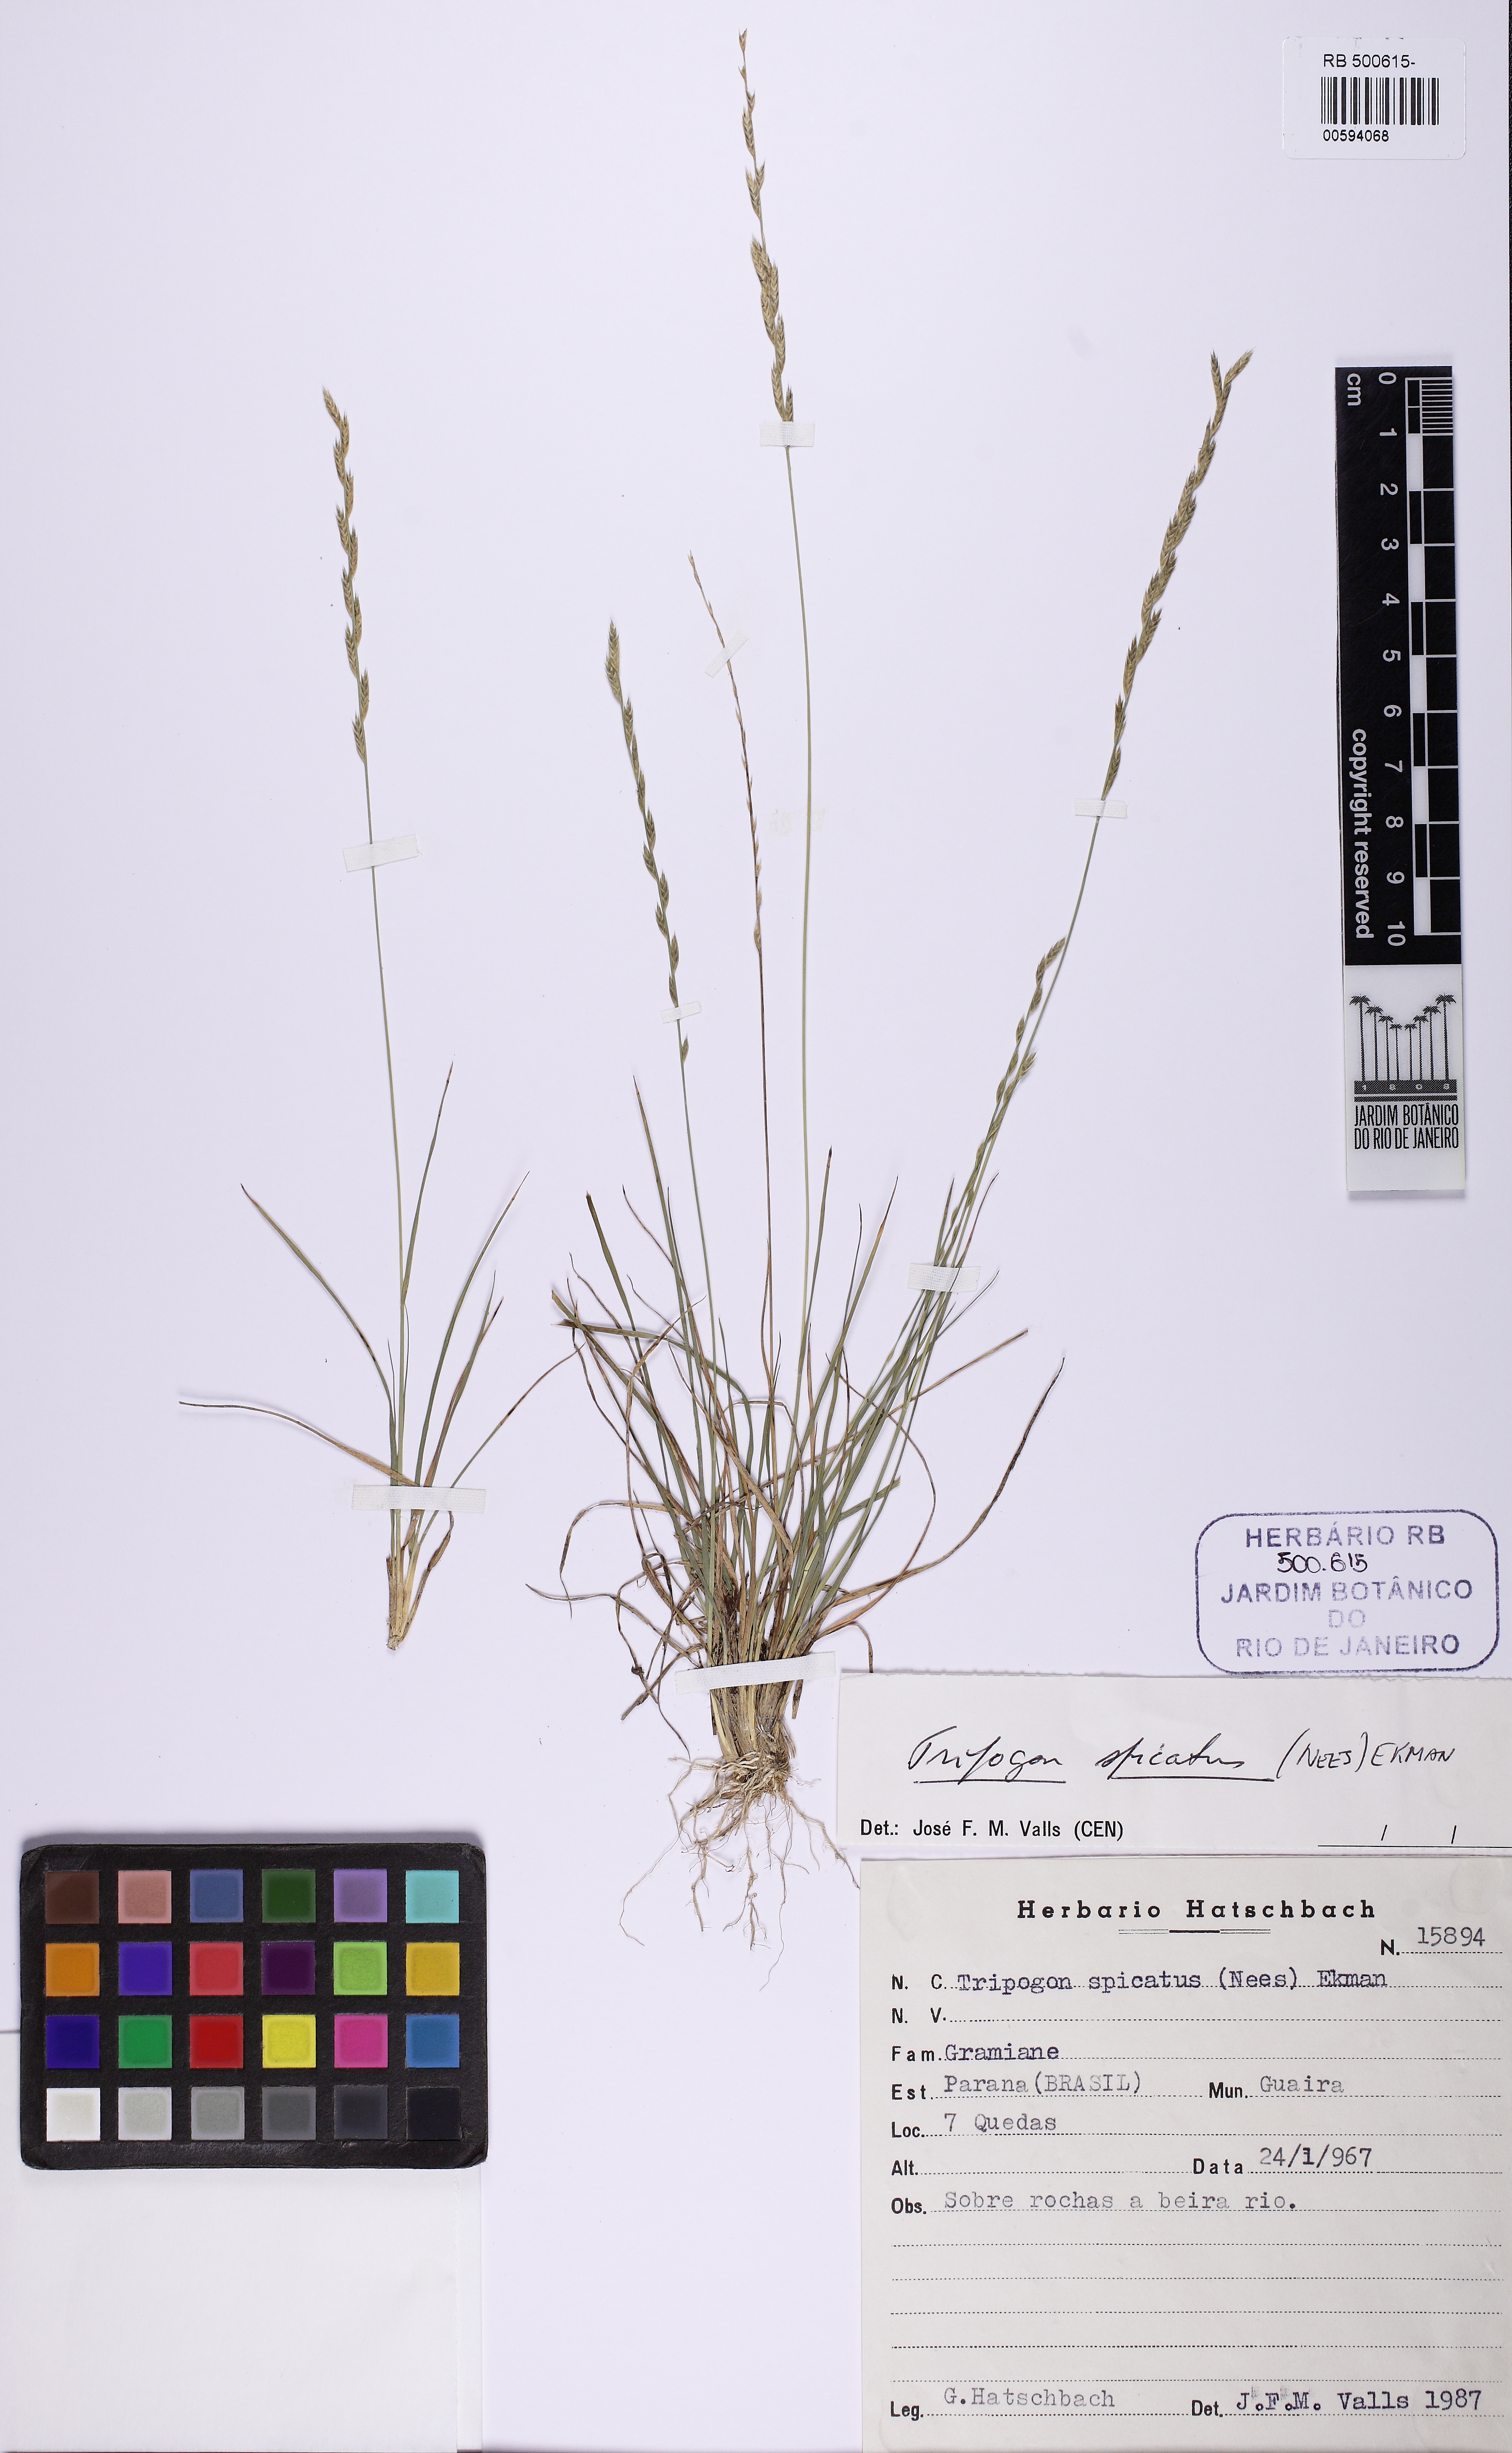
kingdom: Plantae
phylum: Tracheophyta
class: Liliopsida
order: Poales
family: Poaceae
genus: Tripogonella
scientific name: Tripogonella spicata
